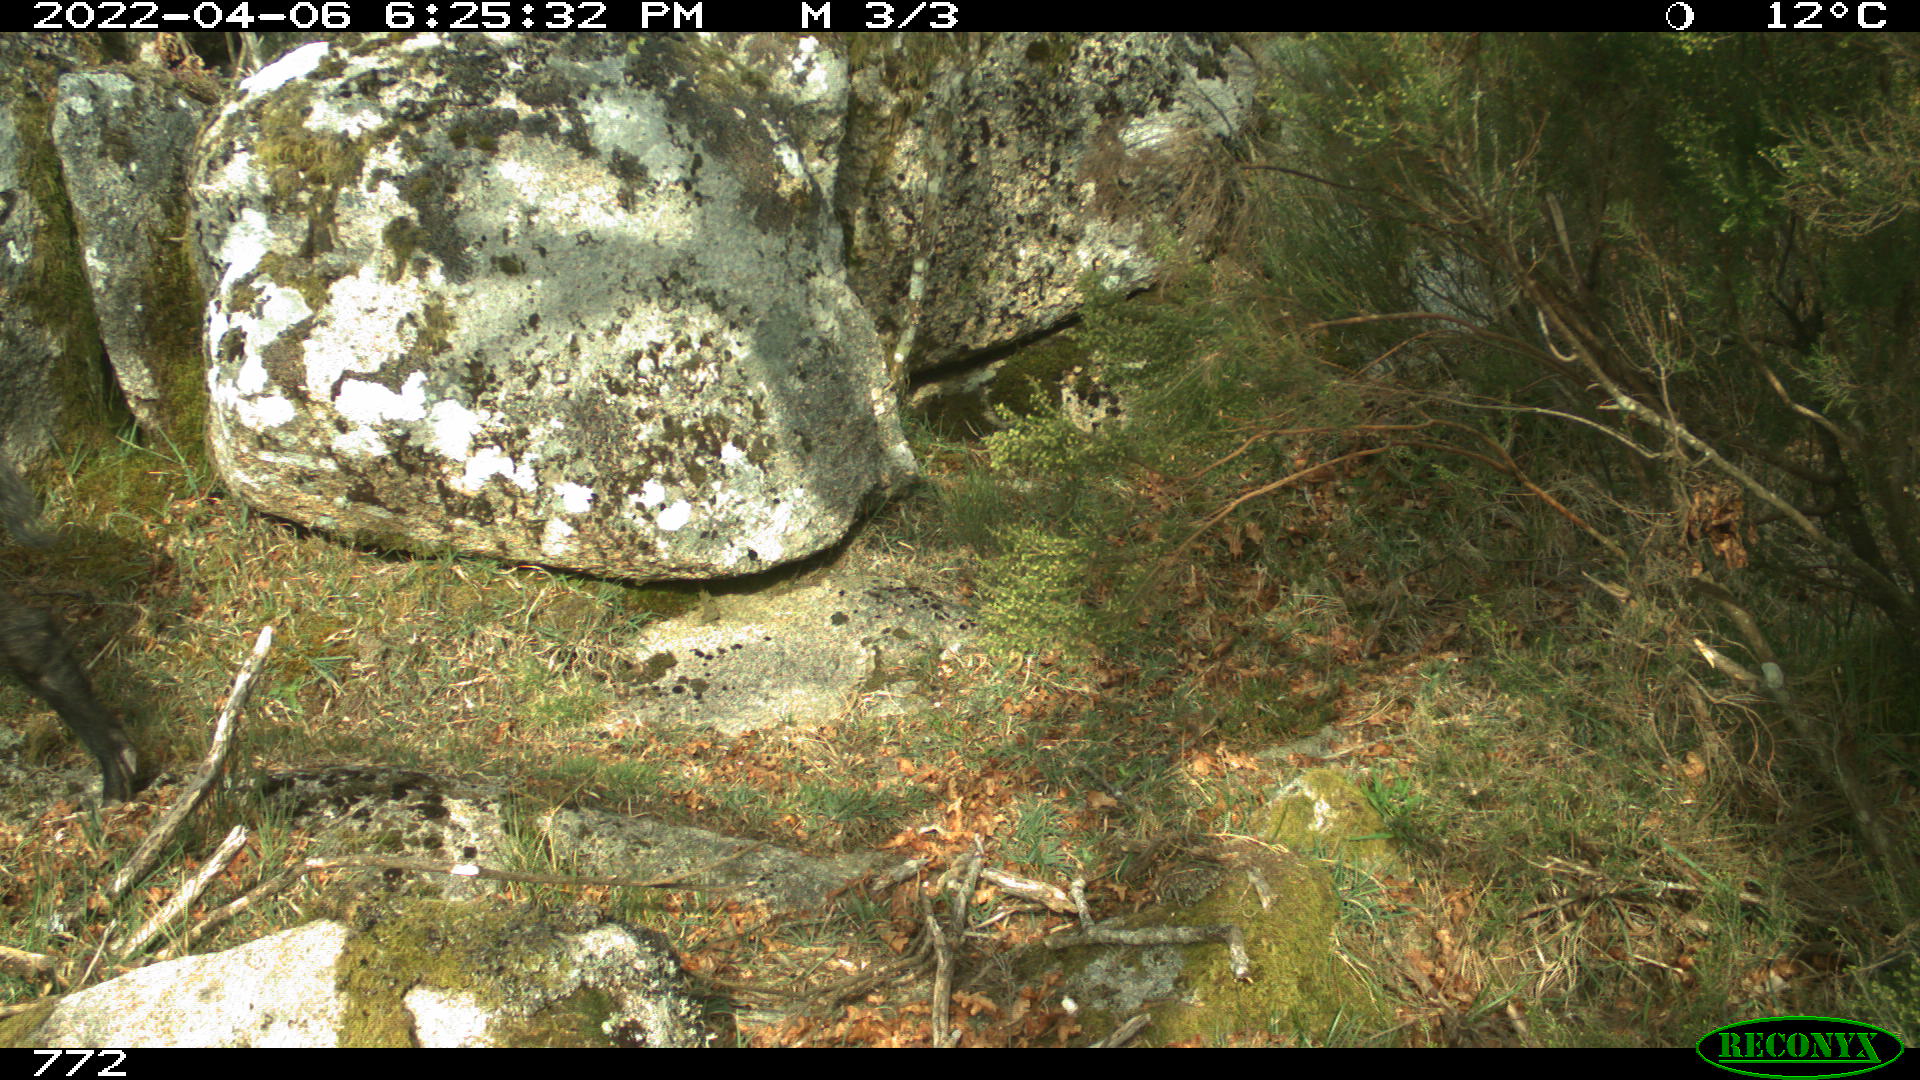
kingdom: Animalia
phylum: Chordata
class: Mammalia
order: Artiodactyla
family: Suidae
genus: Sus
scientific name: Sus scrofa
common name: Wild boar
